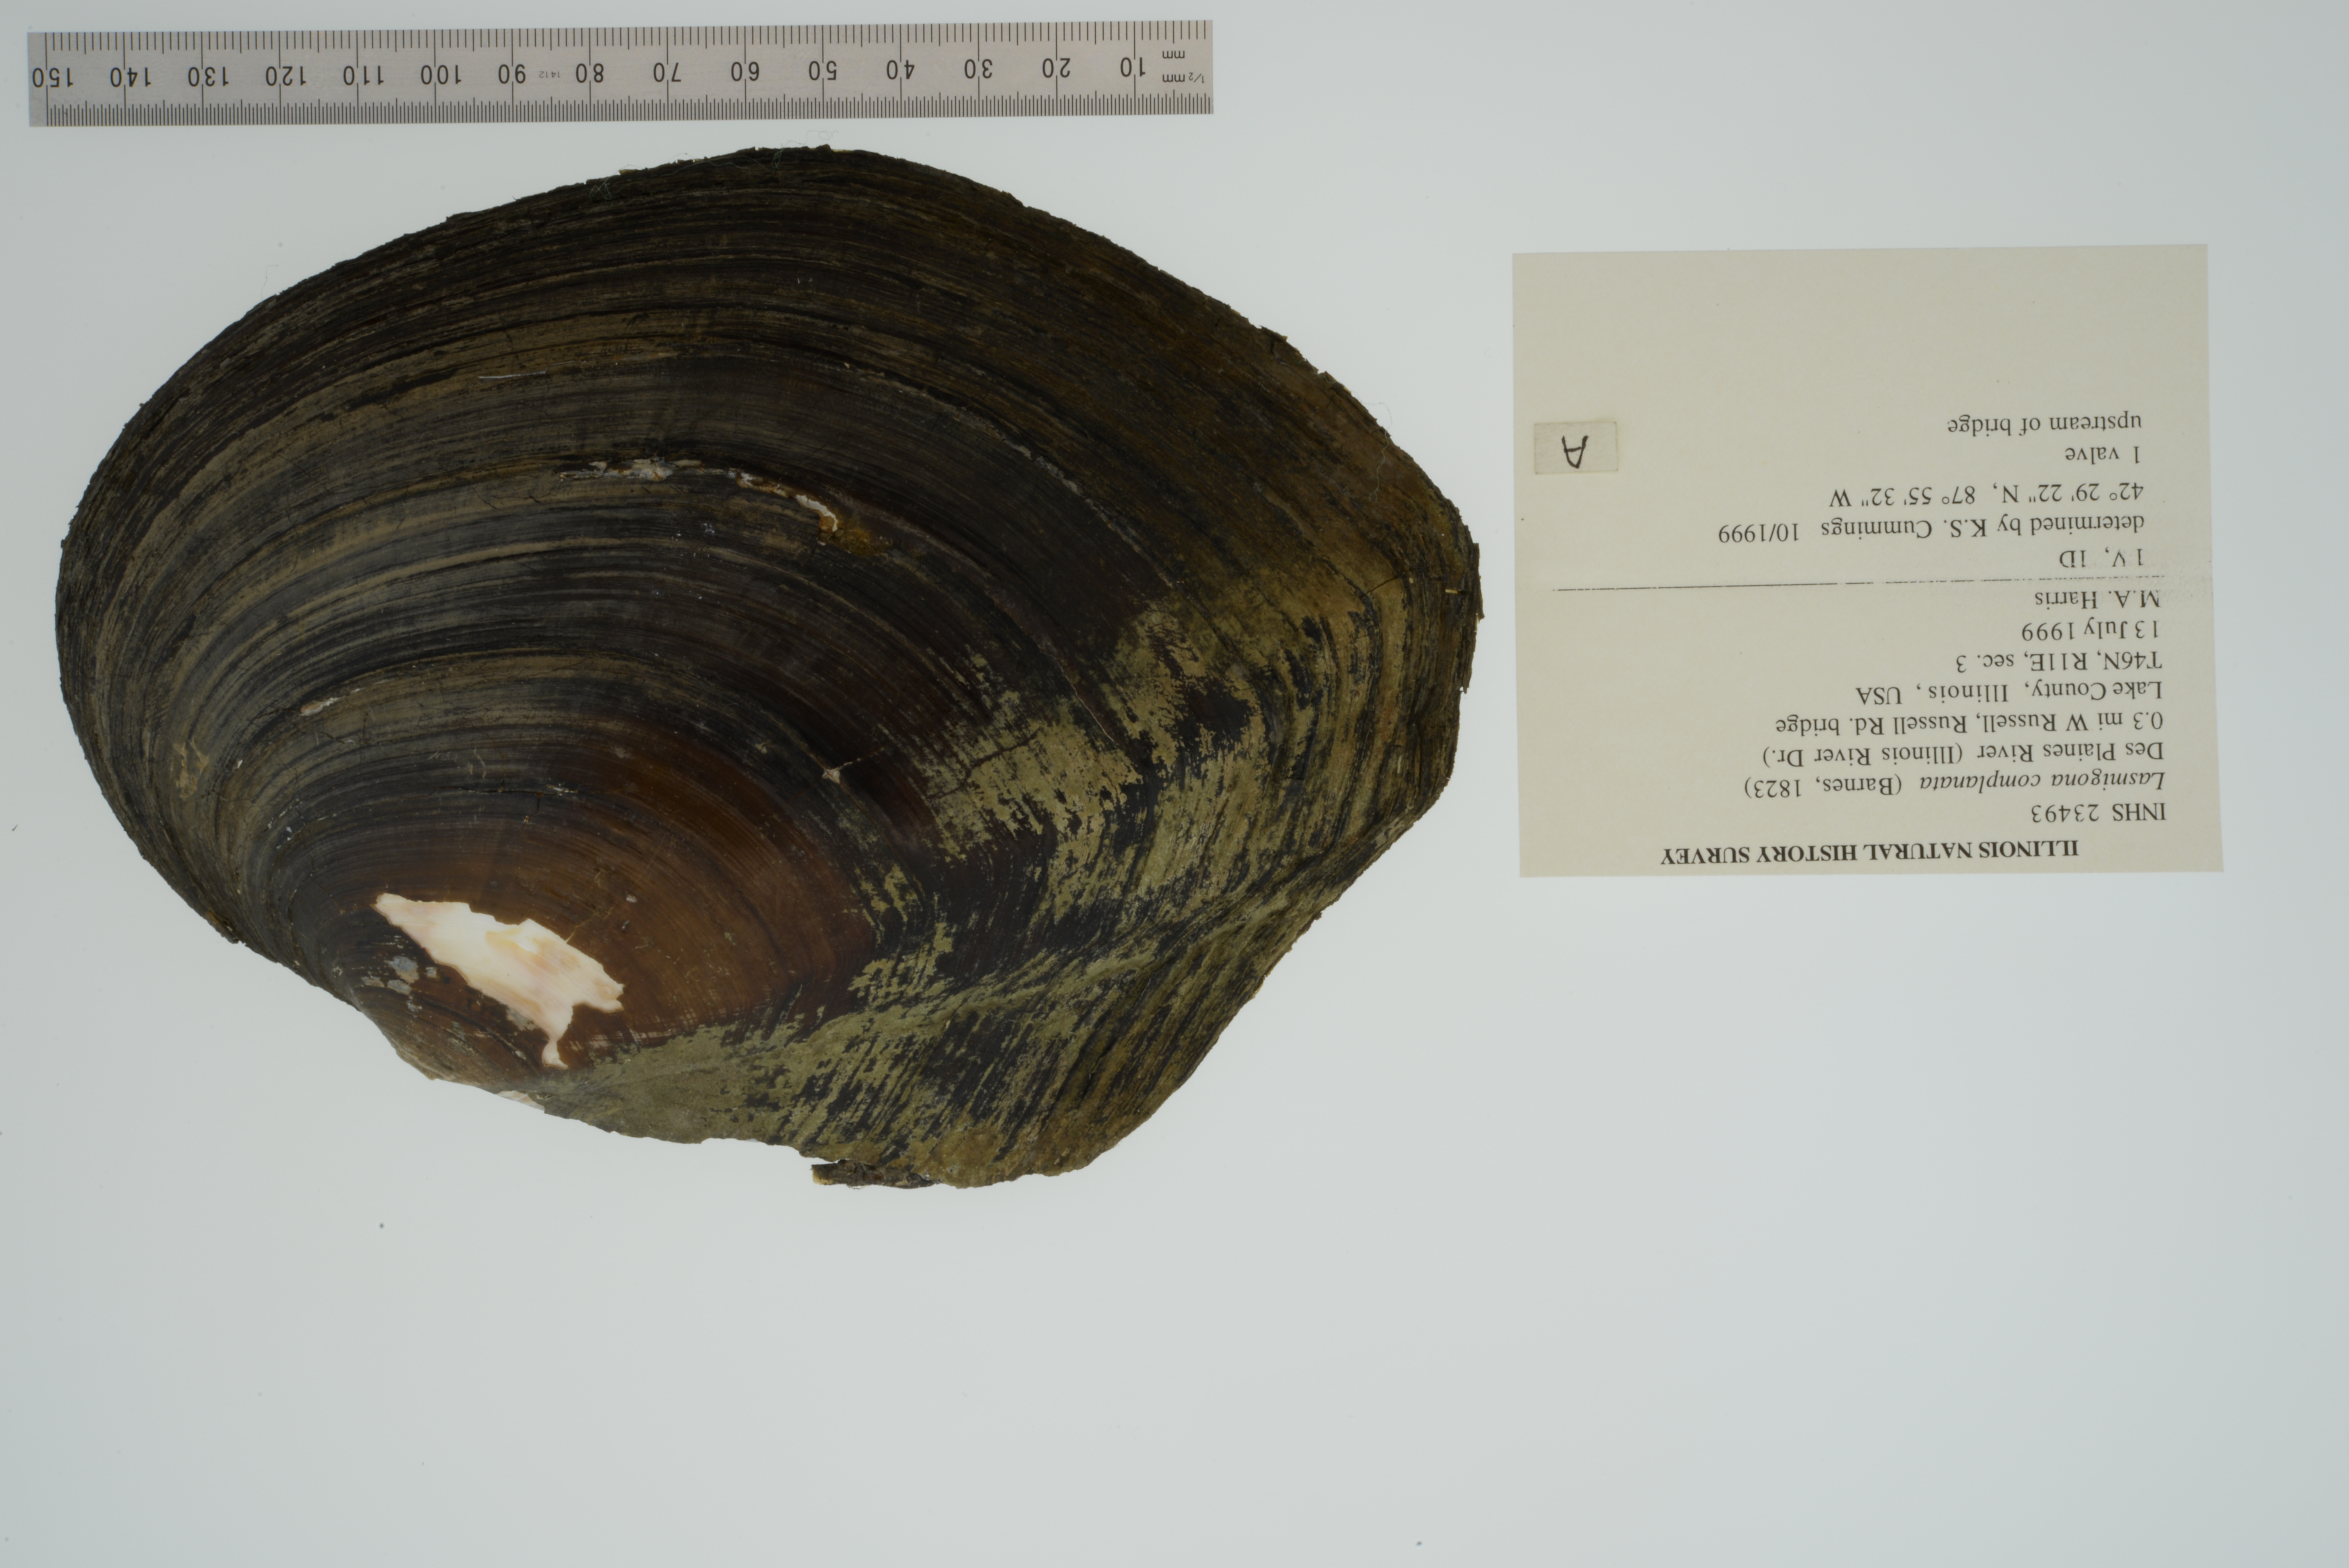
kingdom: Animalia
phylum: Mollusca
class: Bivalvia
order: Unionida
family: Unionidae
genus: Lasmigona
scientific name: Lasmigona complanata
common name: White heelsplitter
